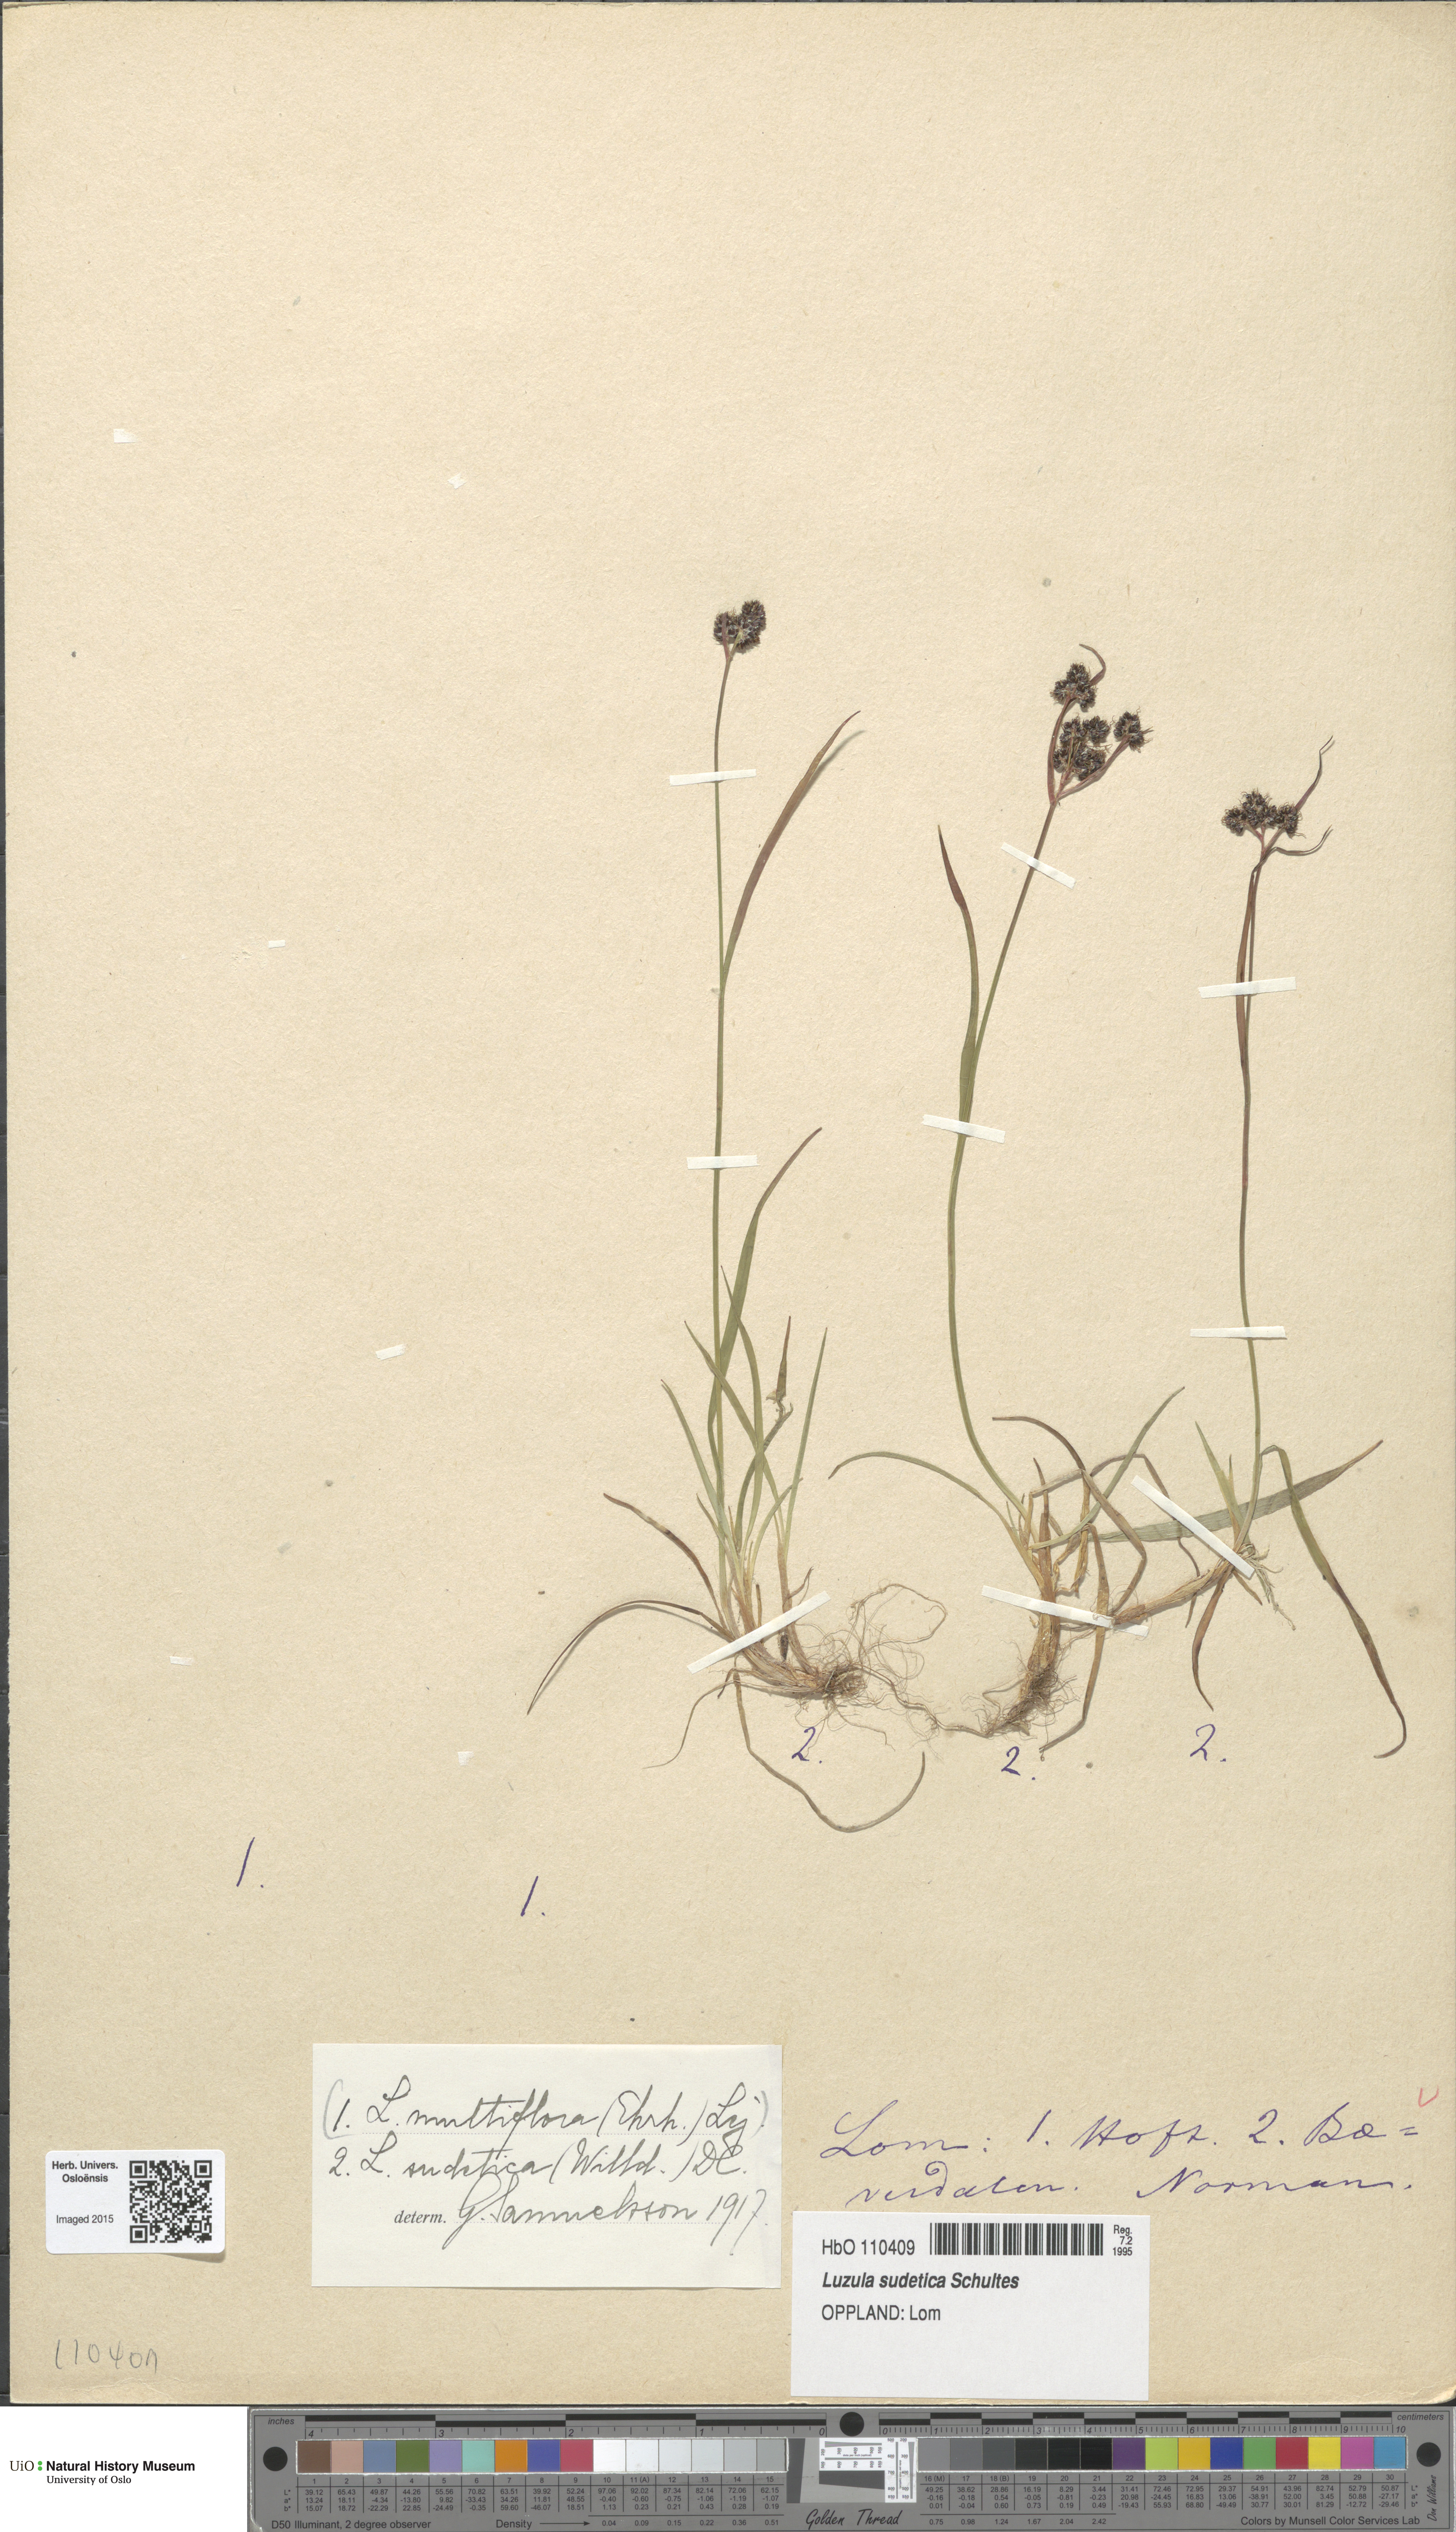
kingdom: Plantae
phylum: Tracheophyta
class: Liliopsida
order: Poales
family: Juncaceae
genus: Luzula
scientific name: Luzula sudetica
